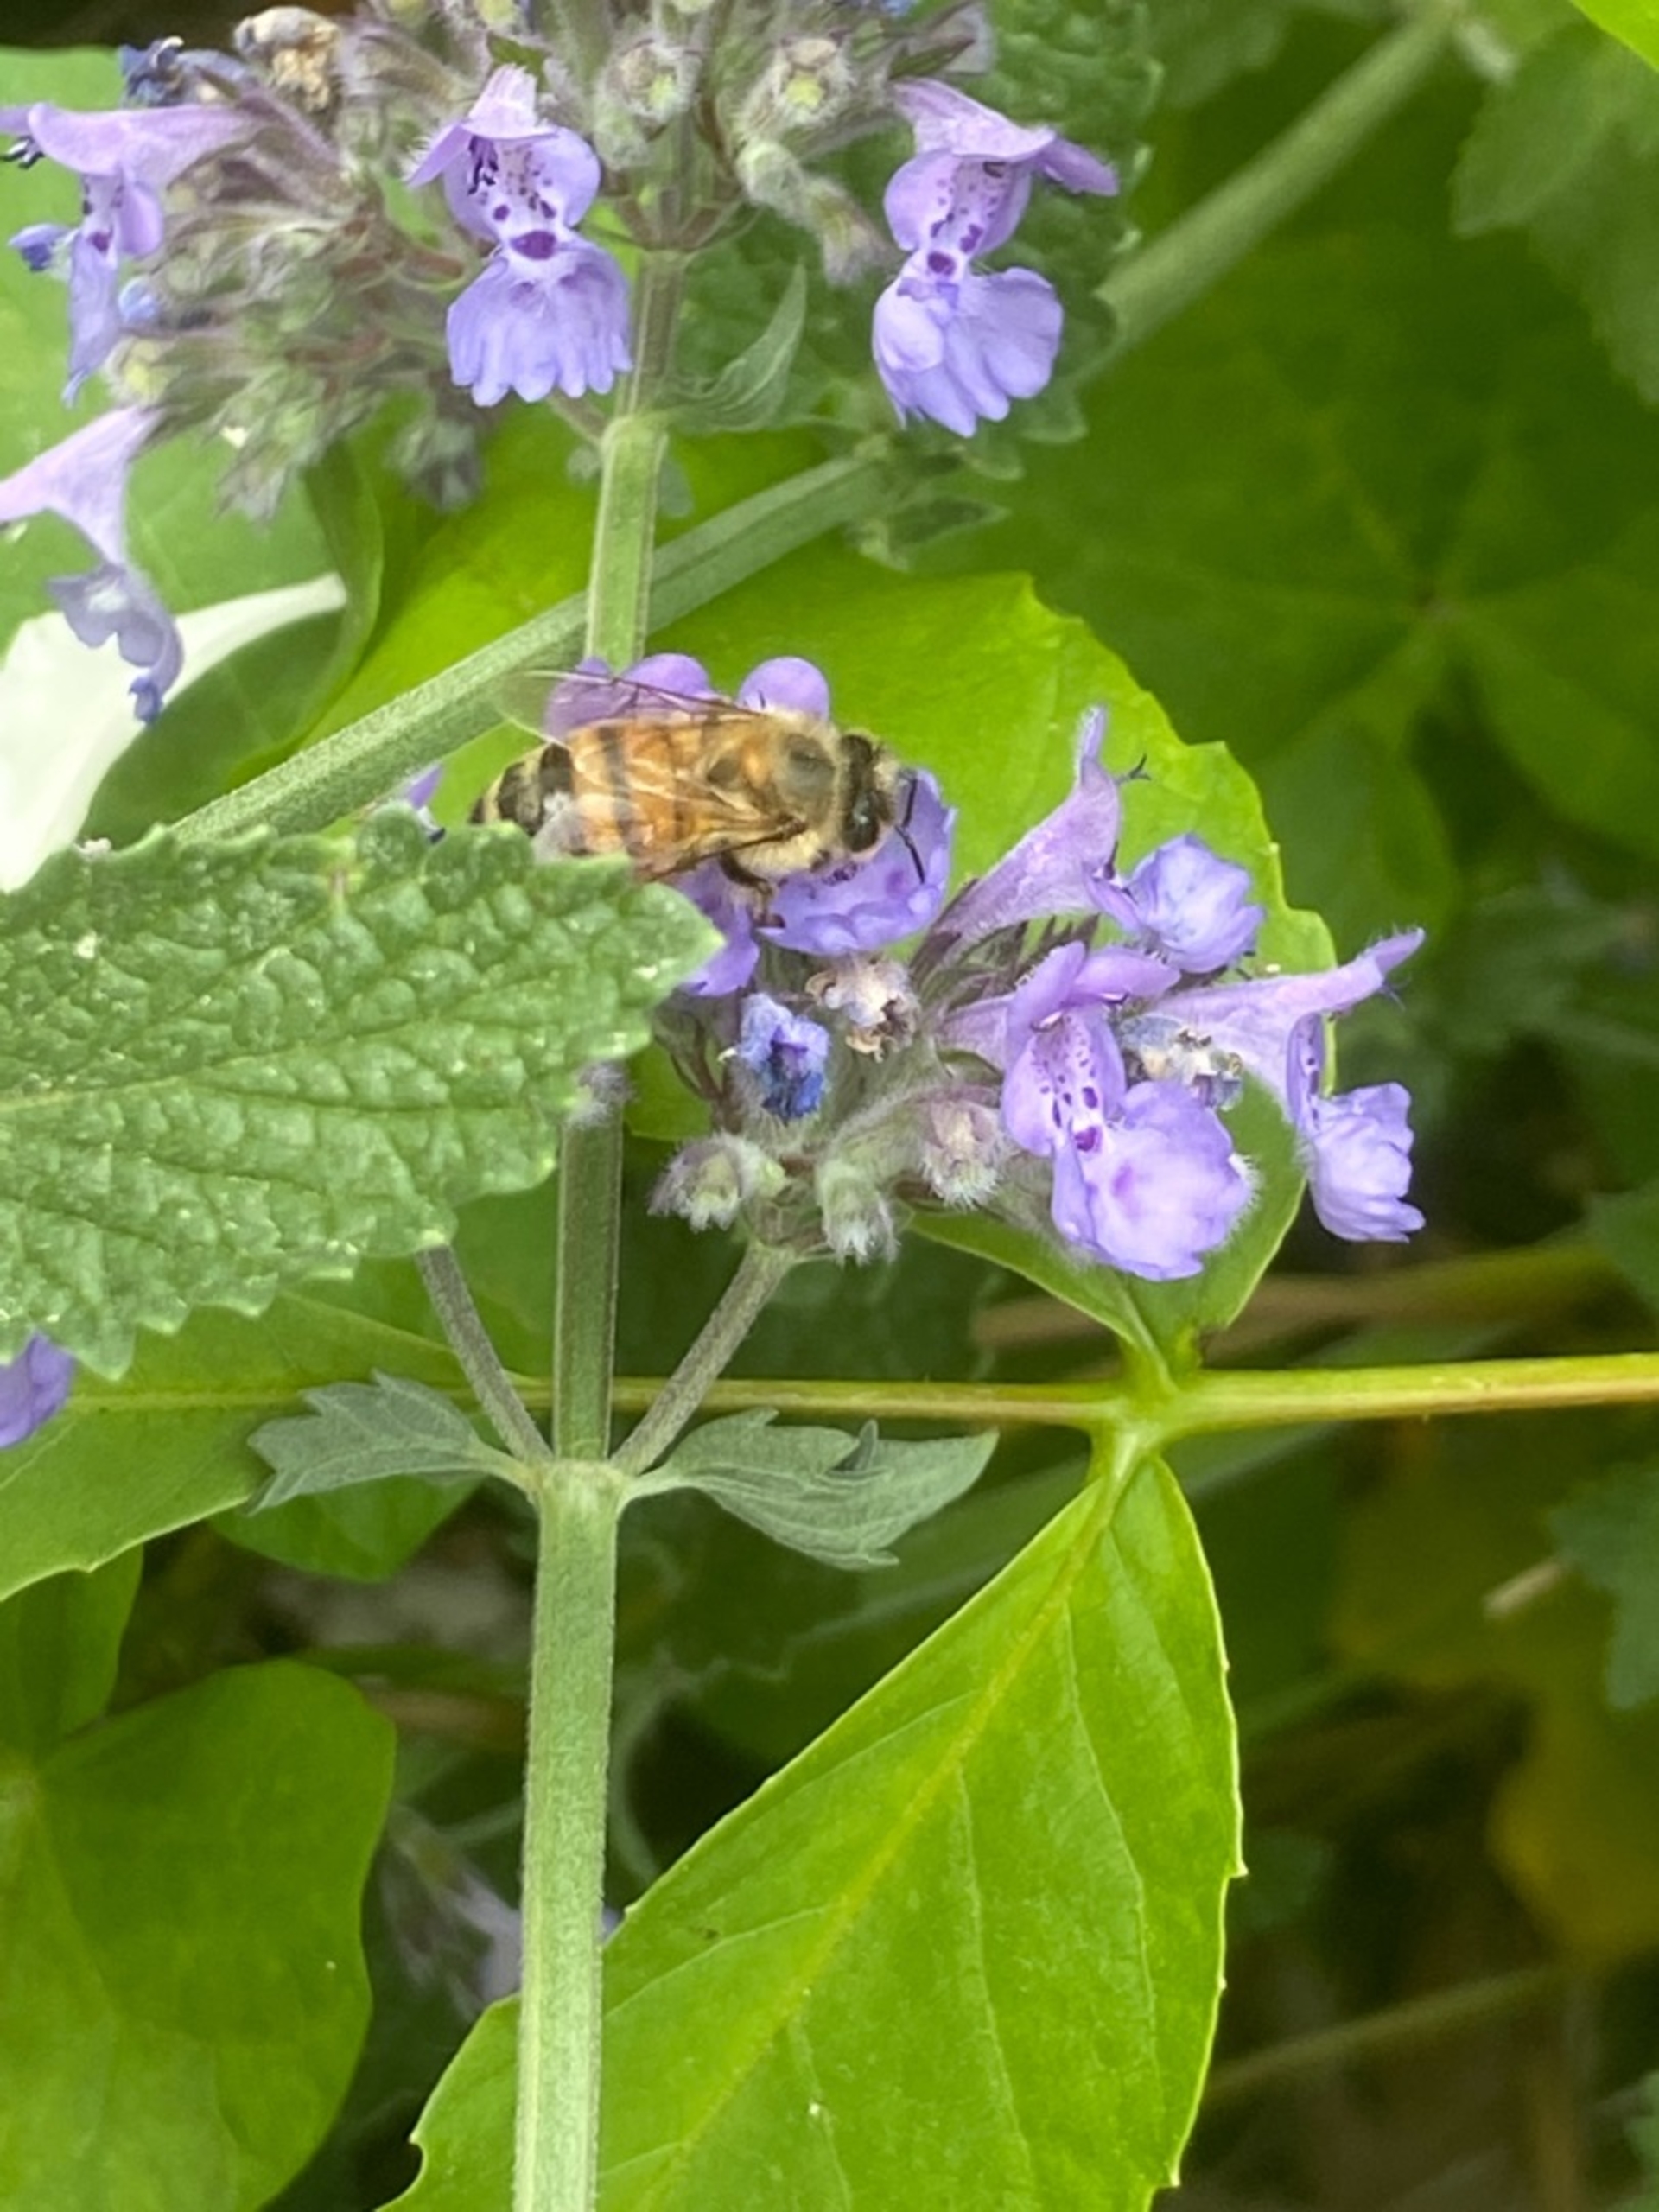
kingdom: Animalia
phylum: Arthropoda
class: Insecta
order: Hymenoptera
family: Apidae
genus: Apis
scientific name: Apis mellifera
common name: Honningbi
